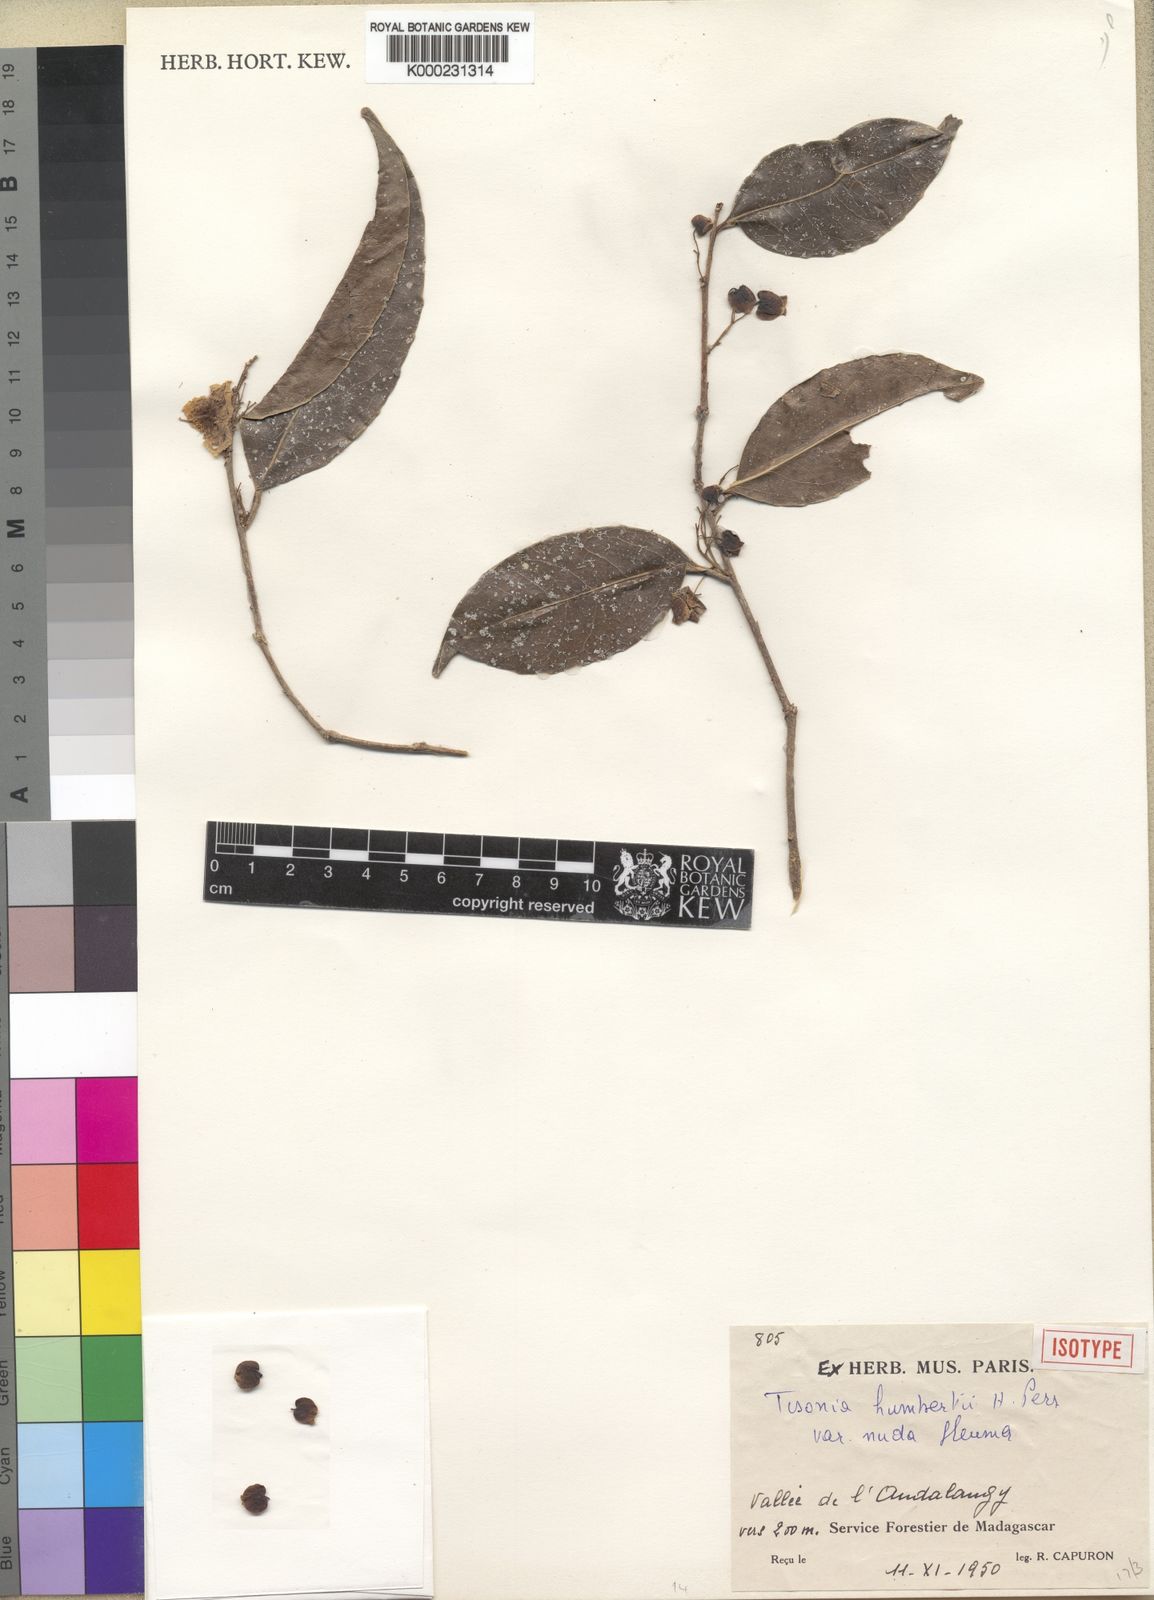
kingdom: Plantae
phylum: Tracheophyta
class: Magnoliopsida
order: Malpighiales
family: Salicaceae
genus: Tisonia
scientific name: Tisonia humbertii
